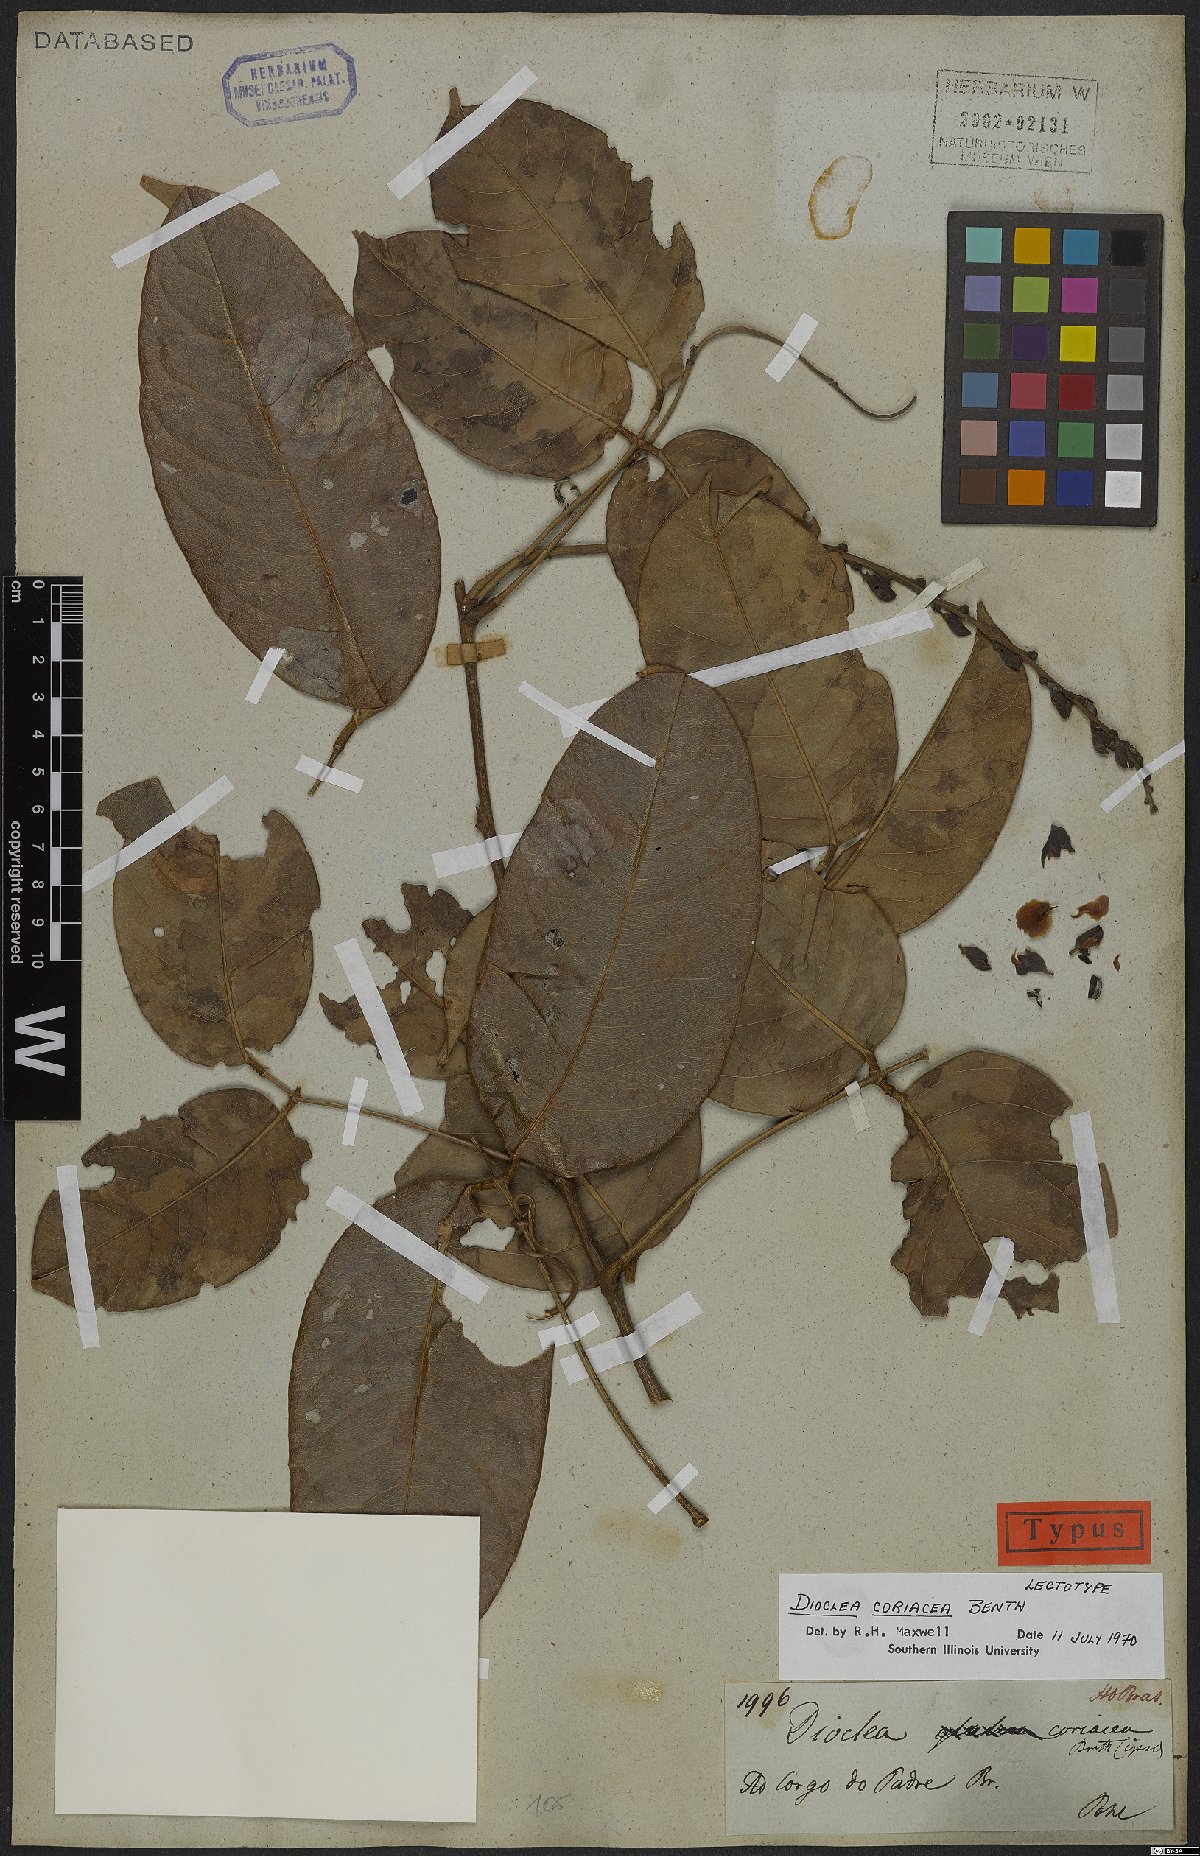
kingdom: Plantae
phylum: Tracheophyta
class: Magnoliopsida
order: Fabales
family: Fabaceae
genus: Macropsychanthus
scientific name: Macropsychanthus coriaceus
